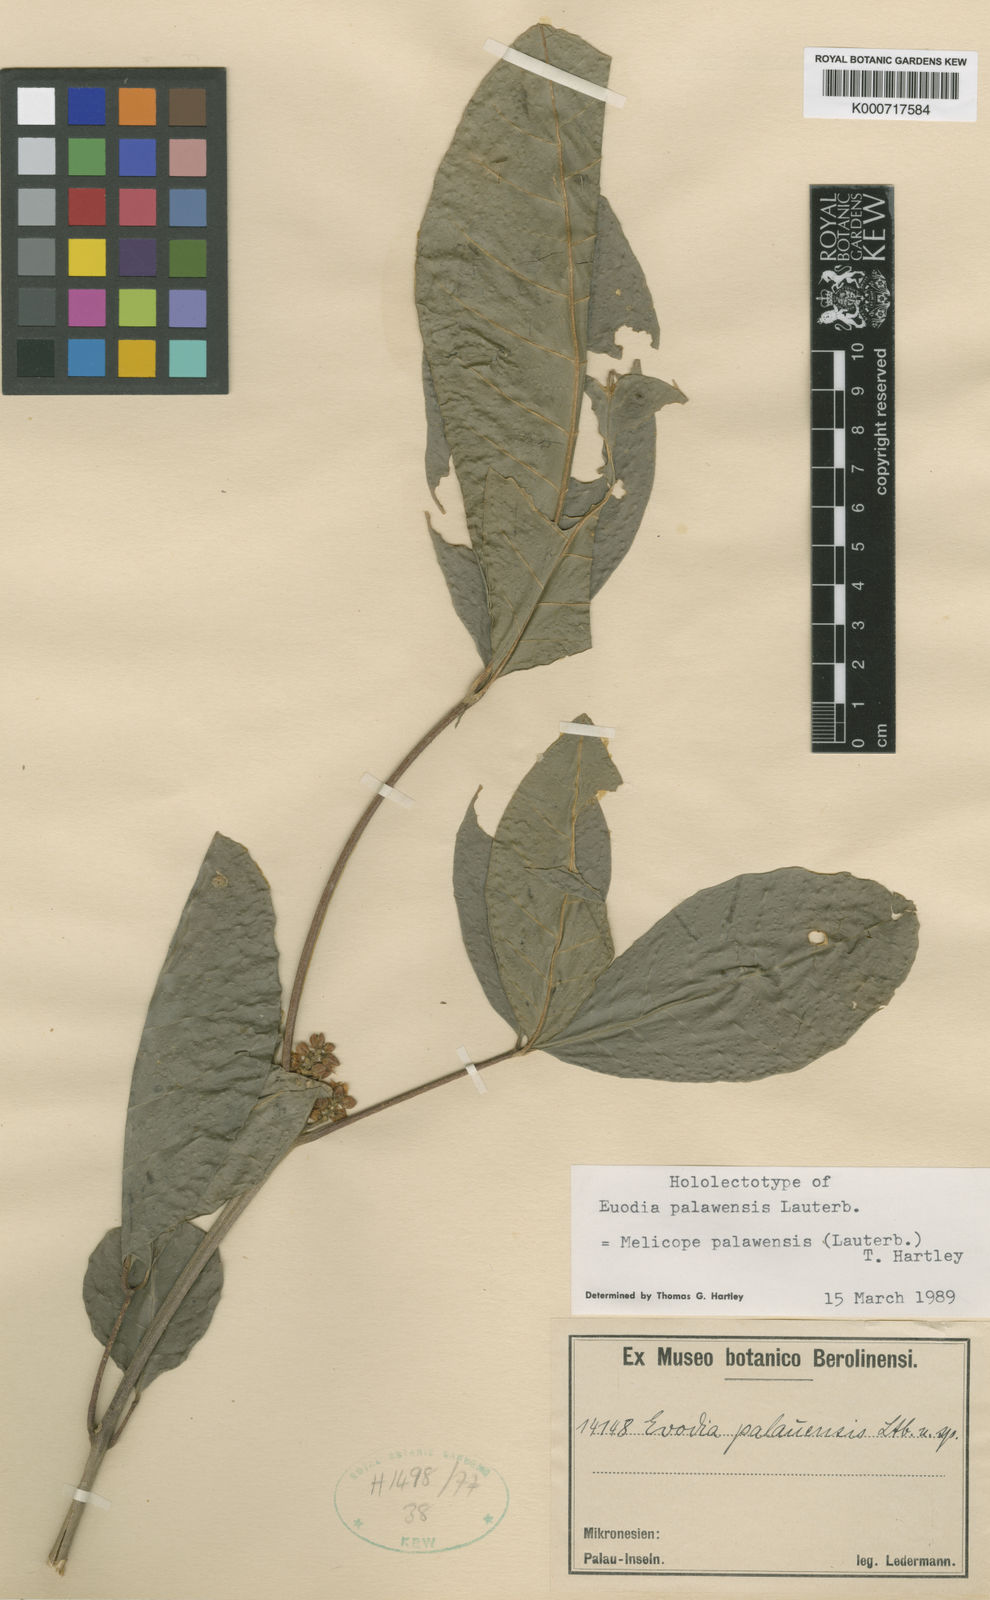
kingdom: Plantae
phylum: Tracheophyta
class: Magnoliopsida
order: Sapindales
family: Rutaceae
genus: Melicope
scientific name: Melicope palawensis
